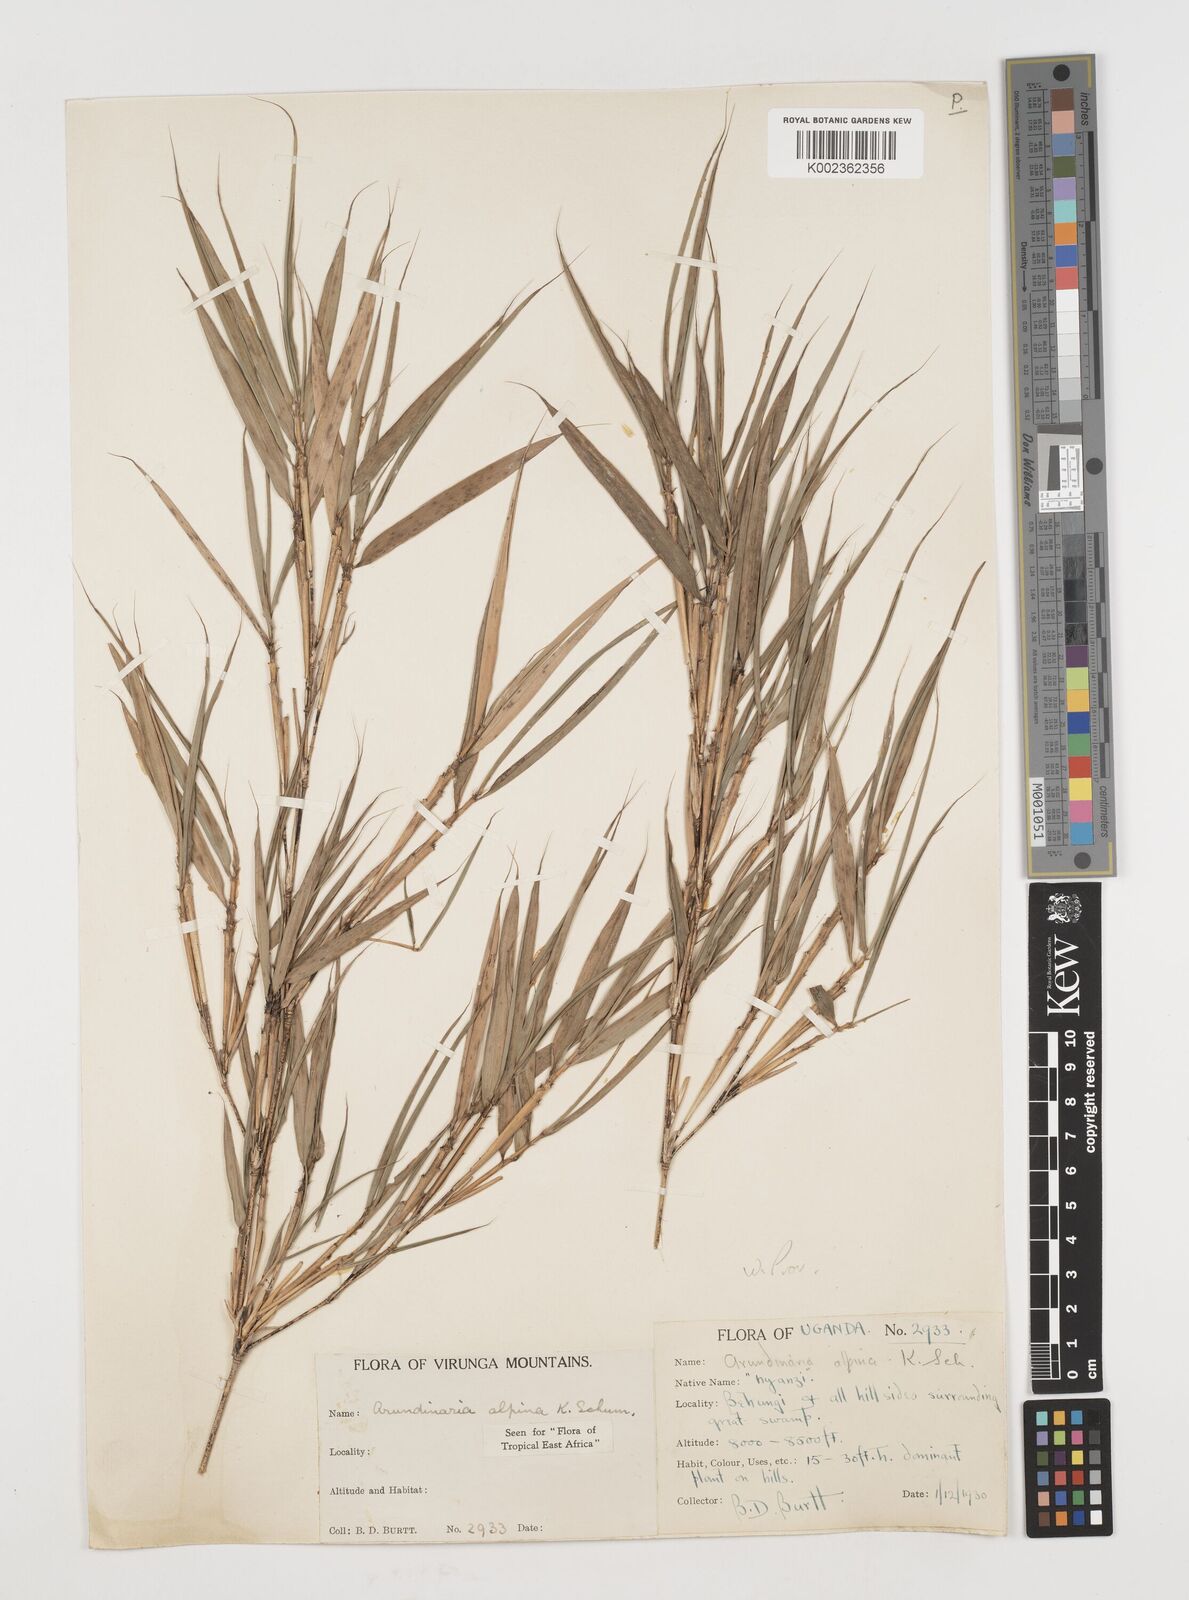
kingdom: Plantae
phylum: Tracheophyta
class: Liliopsida
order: Poales
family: Poaceae
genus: Oldeania
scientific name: Oldeania alpina
